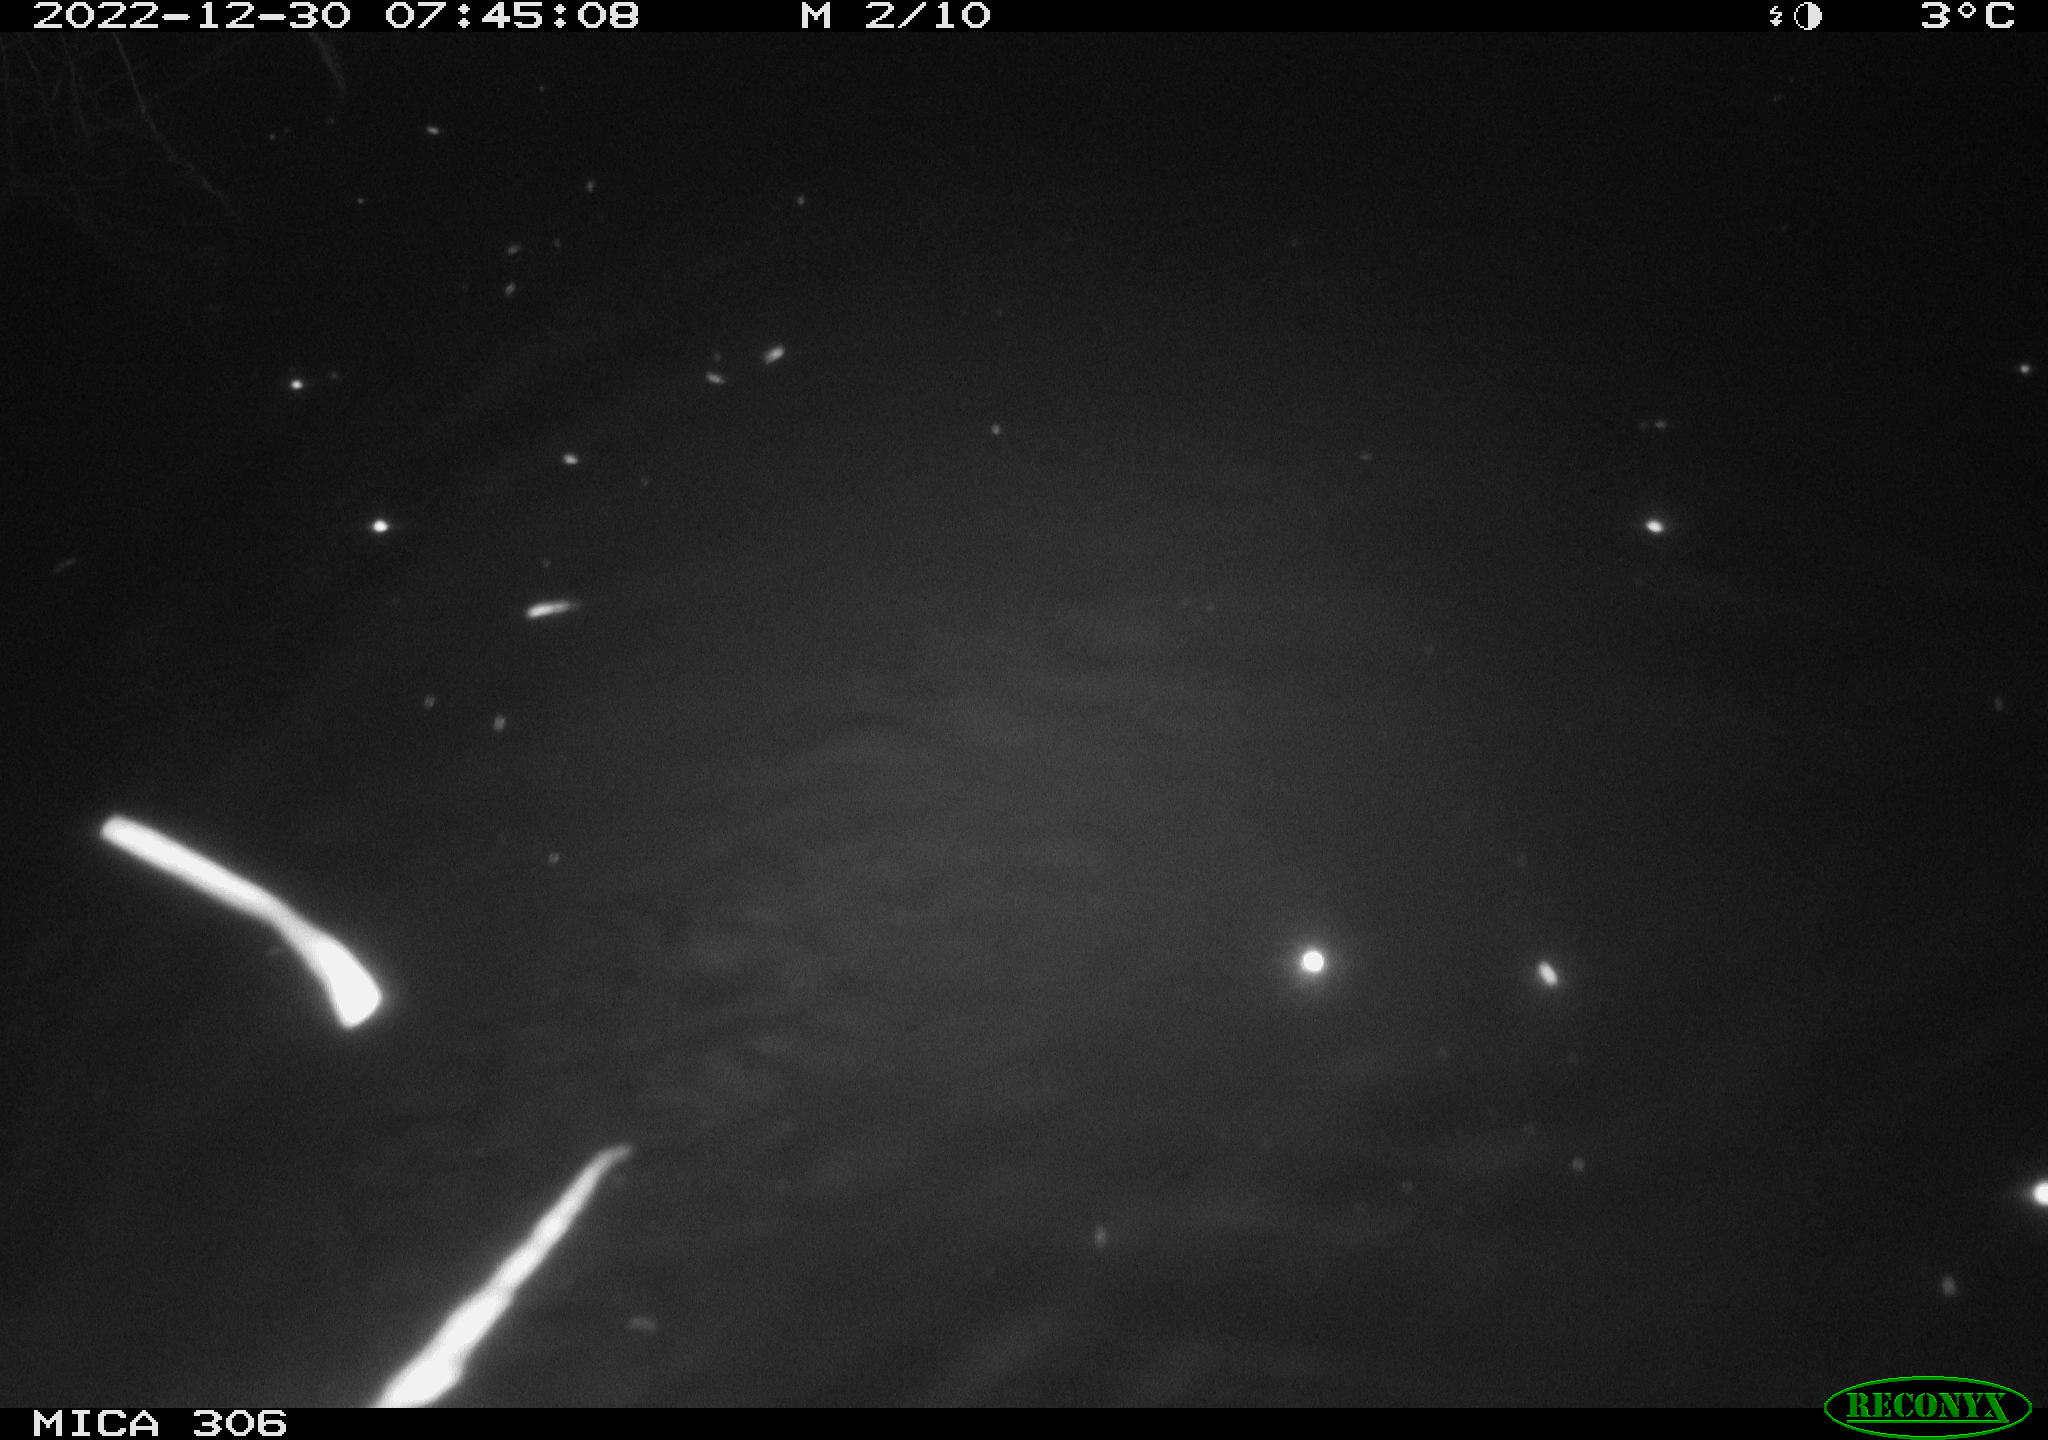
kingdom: Animalia
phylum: Chordata
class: Mammalia
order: Rodentia
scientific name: Rodentia
